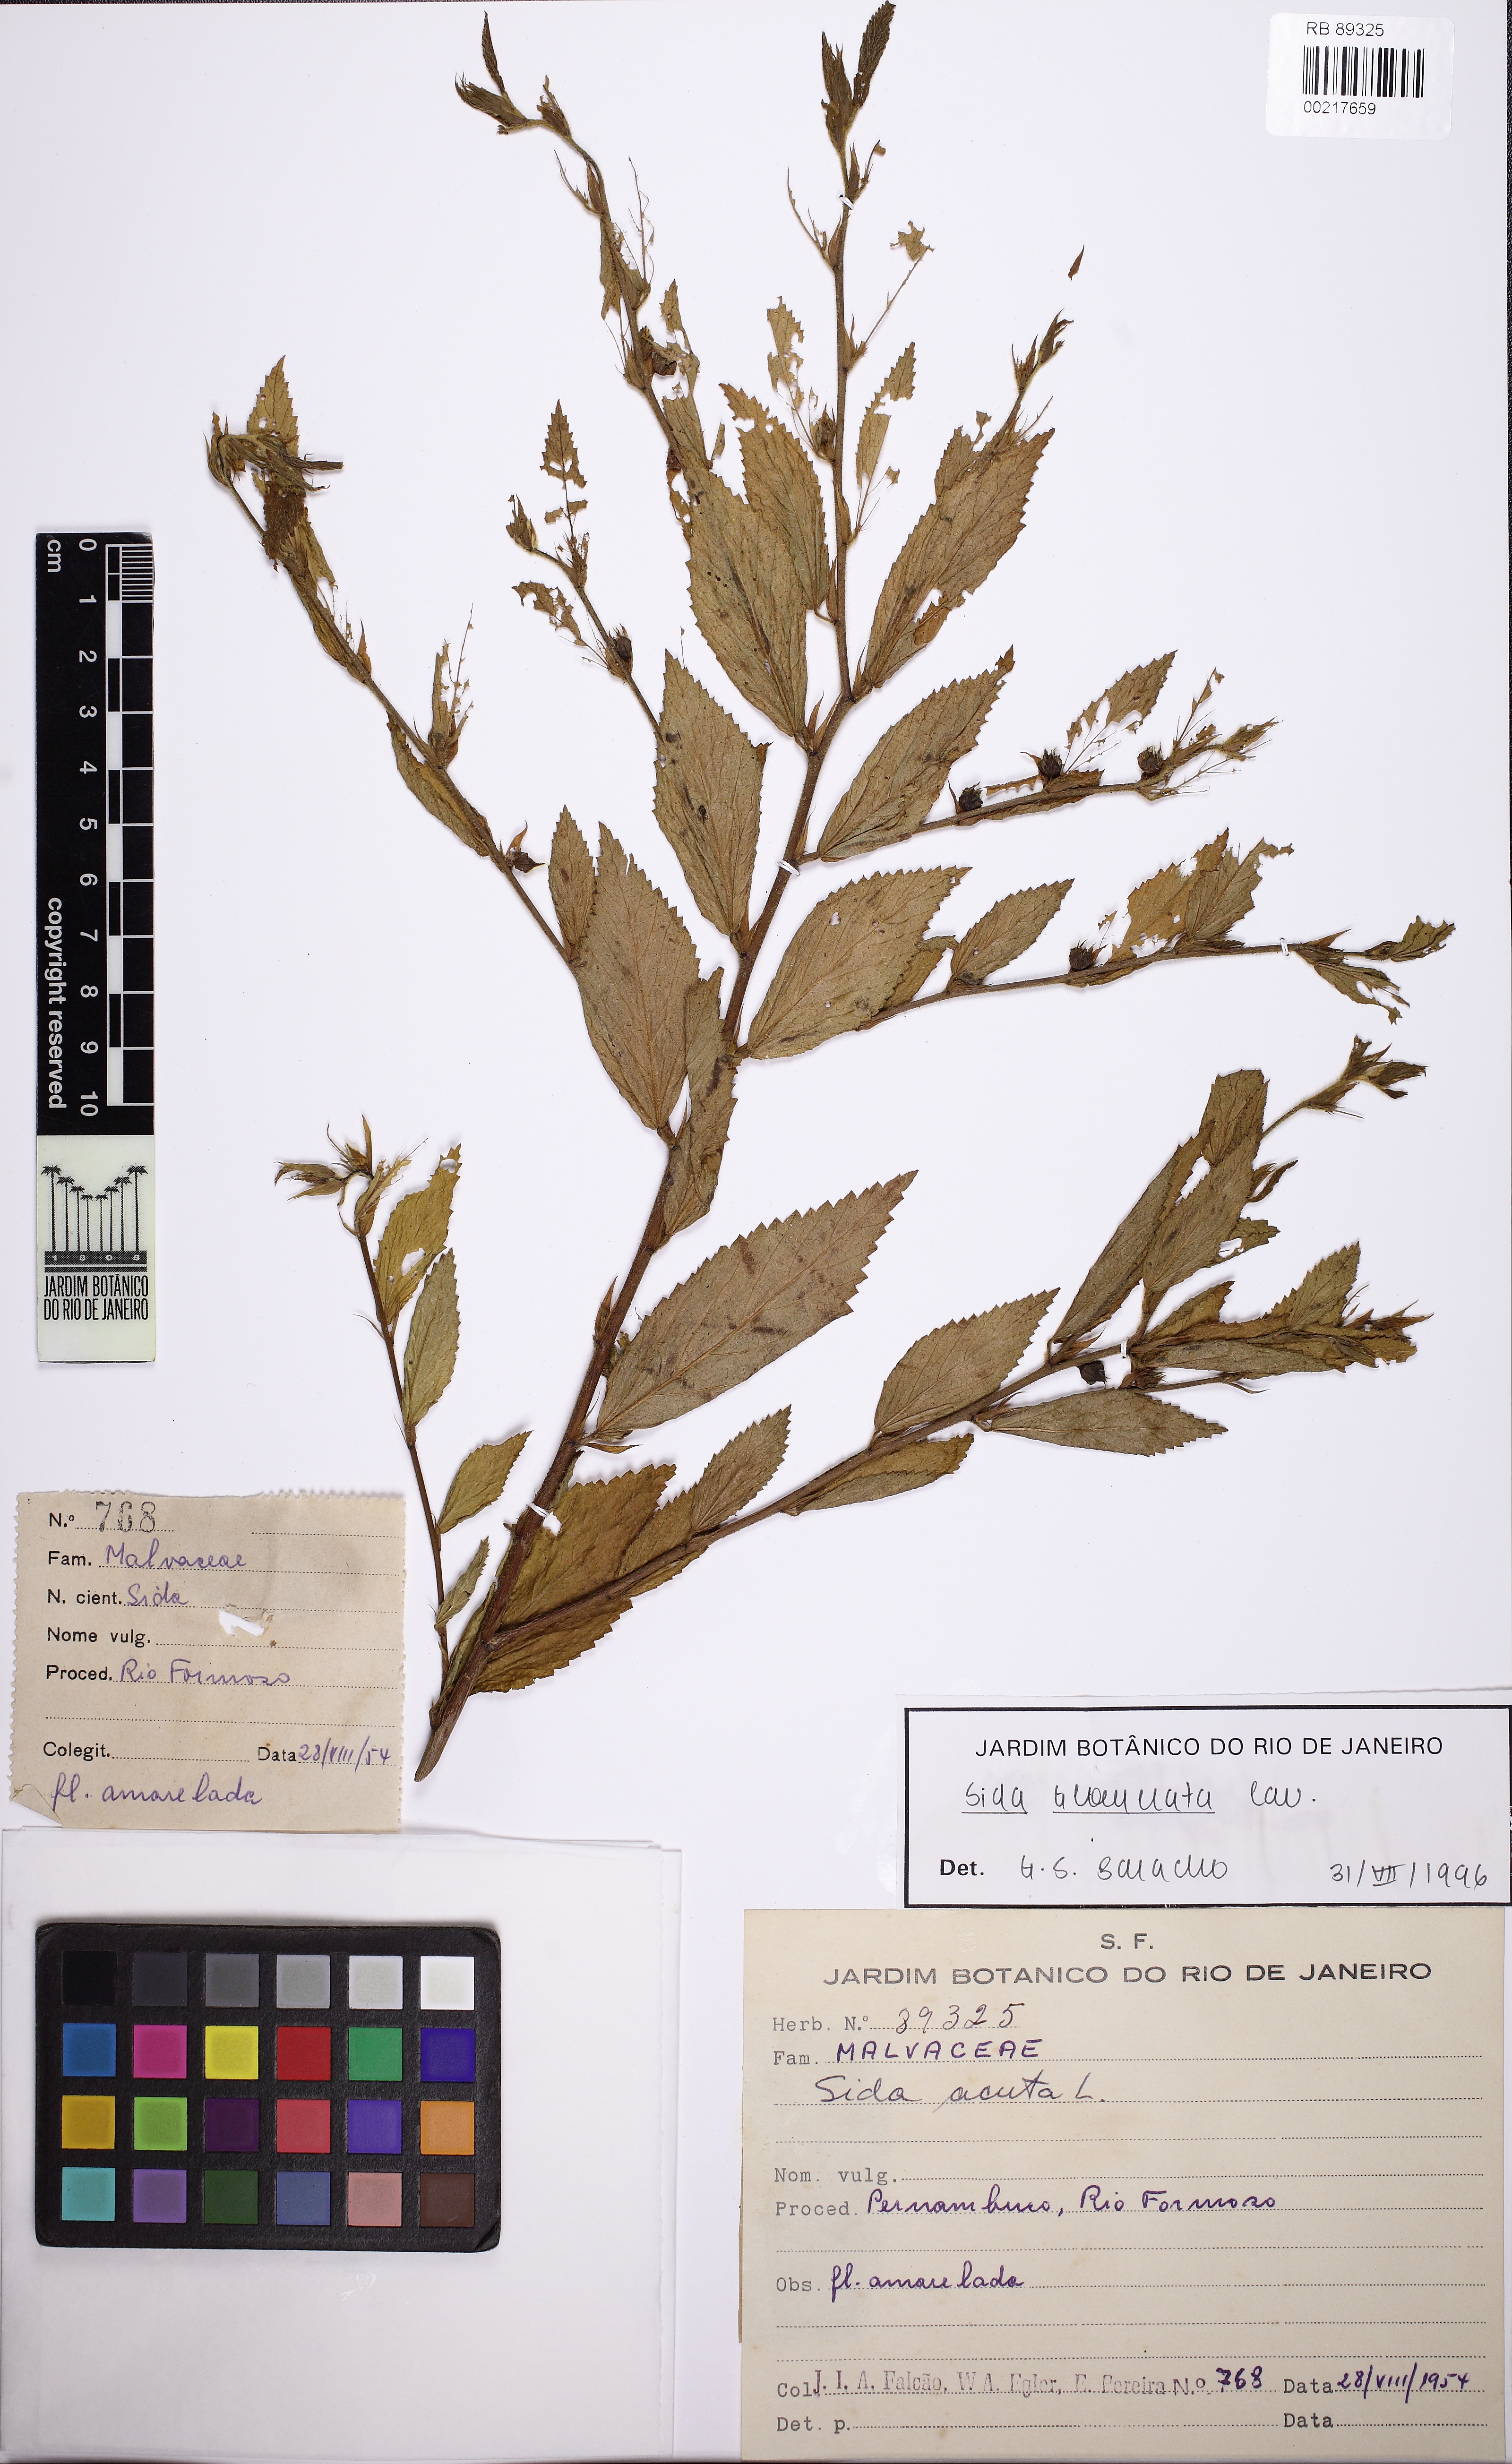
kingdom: Plantae
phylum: Tracheophyta
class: Magnoliopsida
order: Malvales
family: Malvaceae
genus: Sida
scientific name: Sida glomerata
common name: Clustered fanpetals
